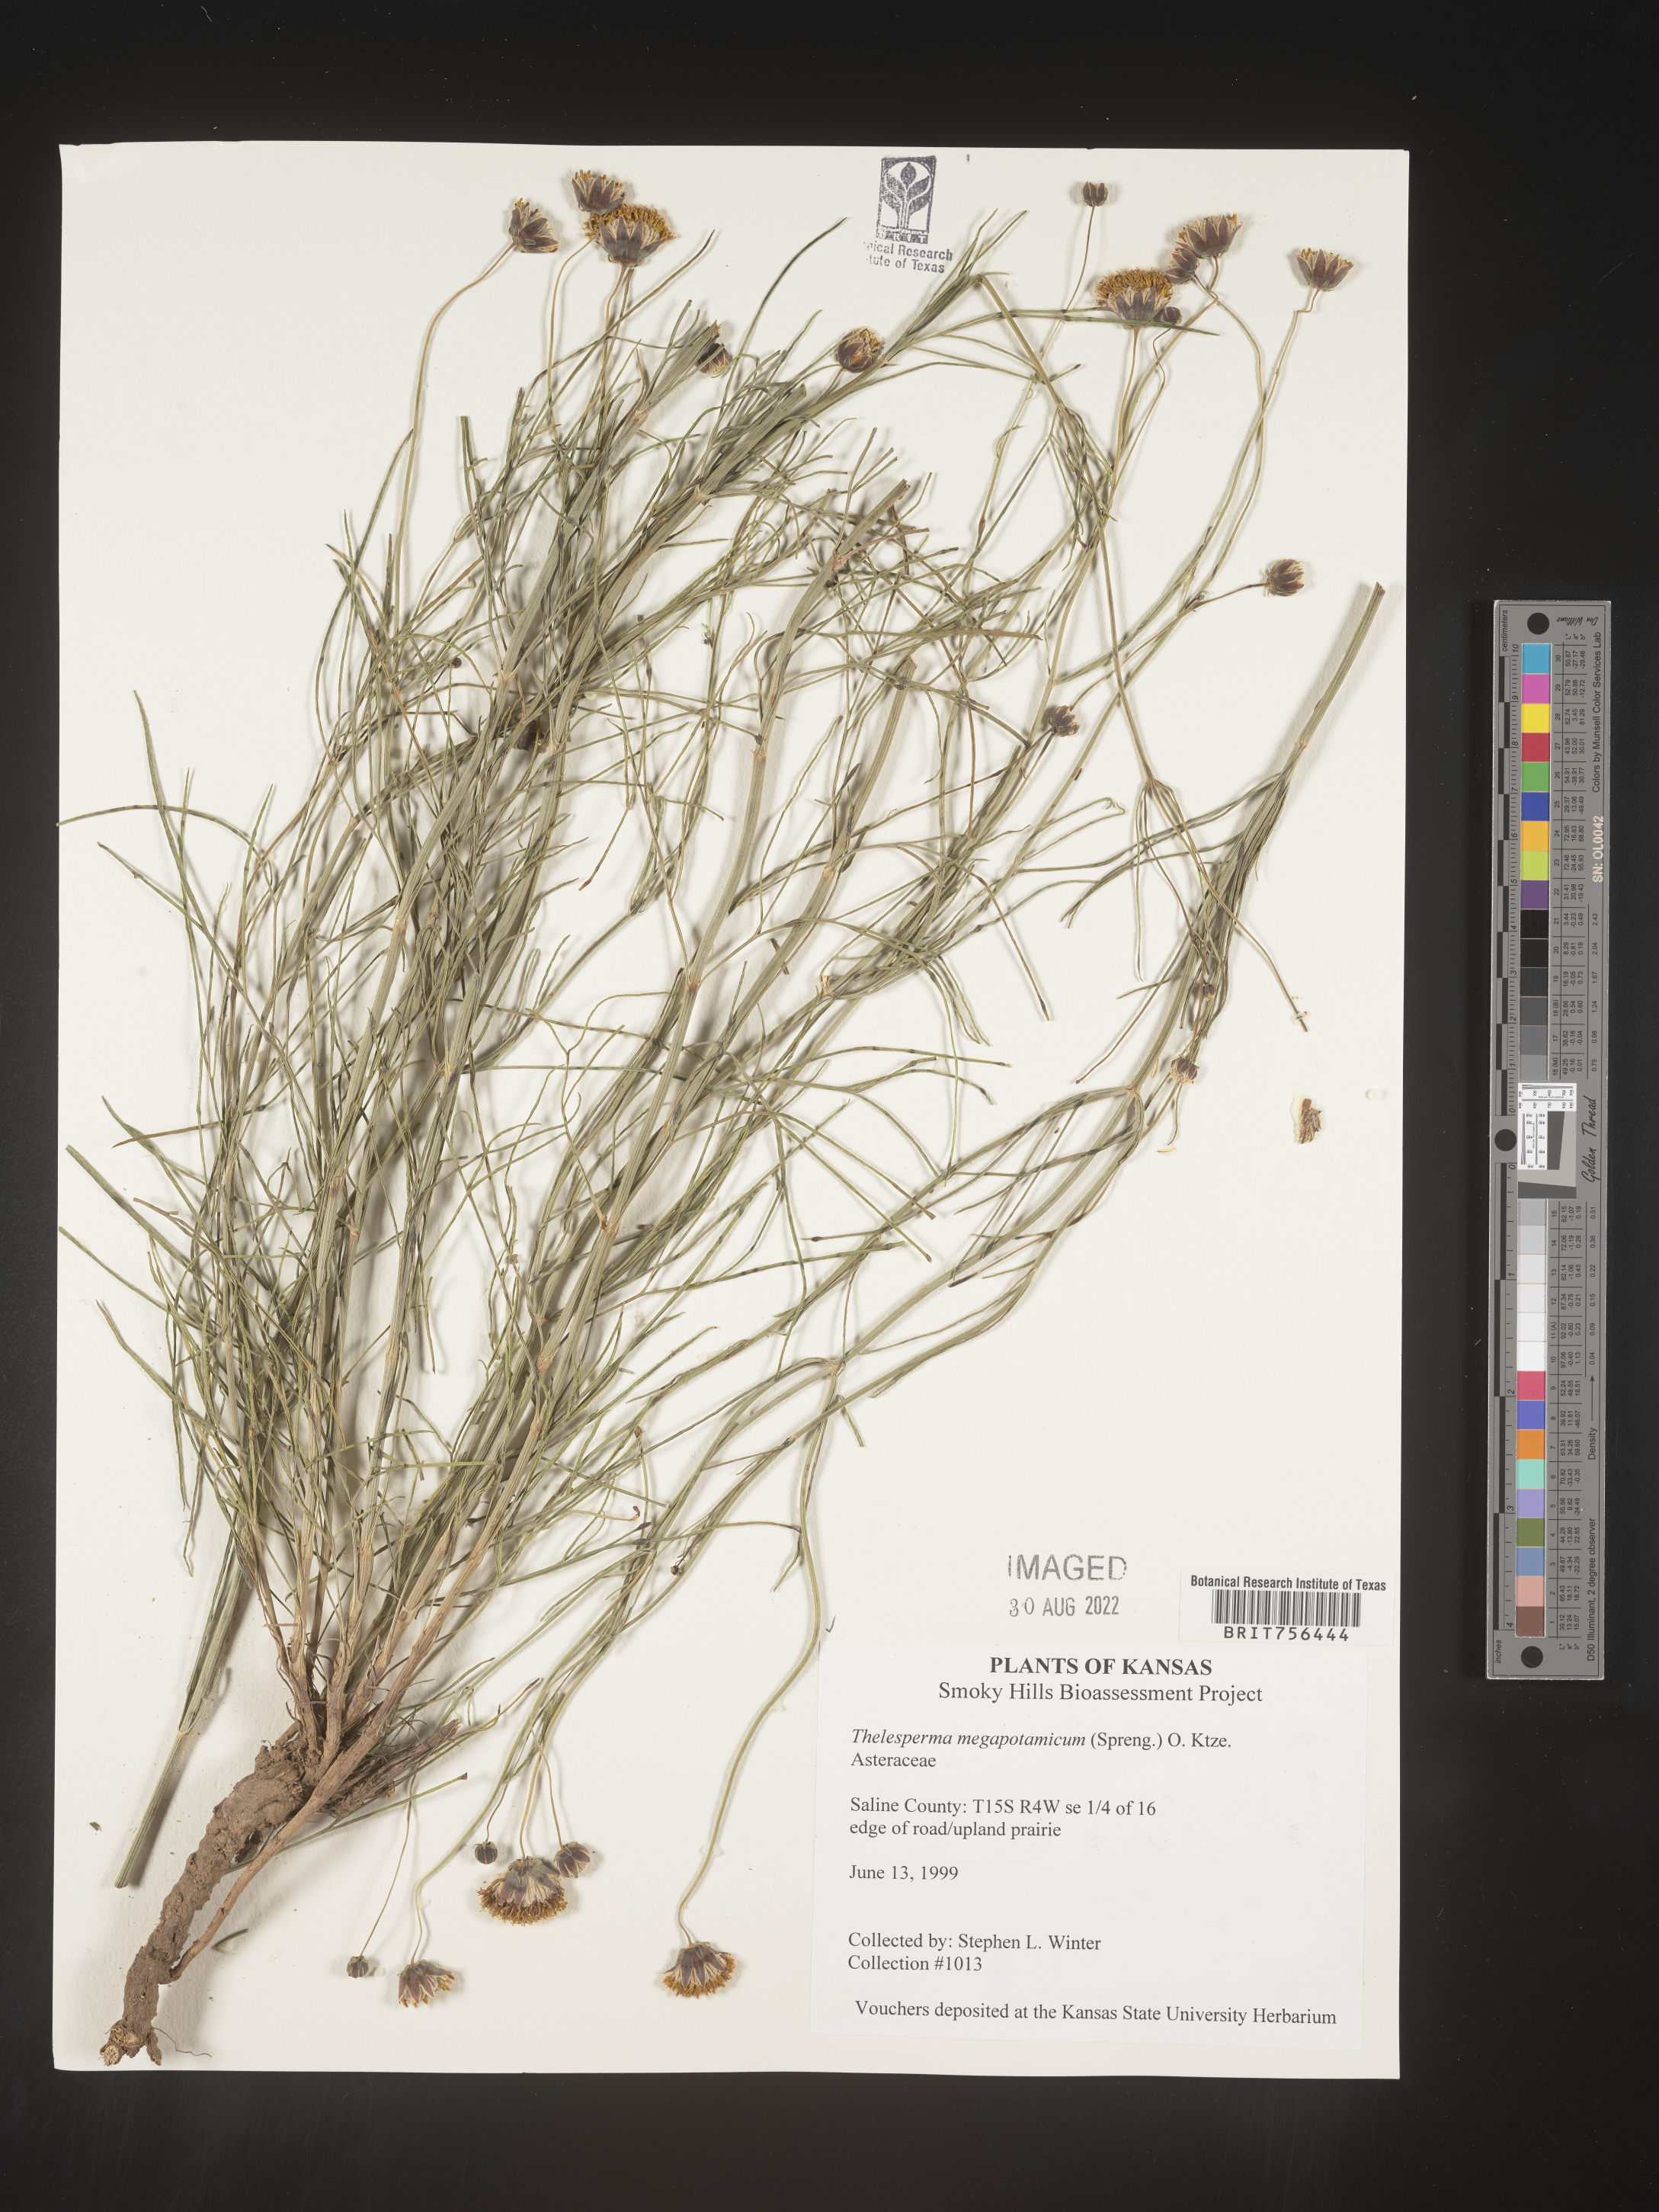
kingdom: Plantae
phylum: Tracheophyta
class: Magnoliopsida
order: Asterales
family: Asteraceae
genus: Thelesperma
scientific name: Thelesperma megapotamicum
